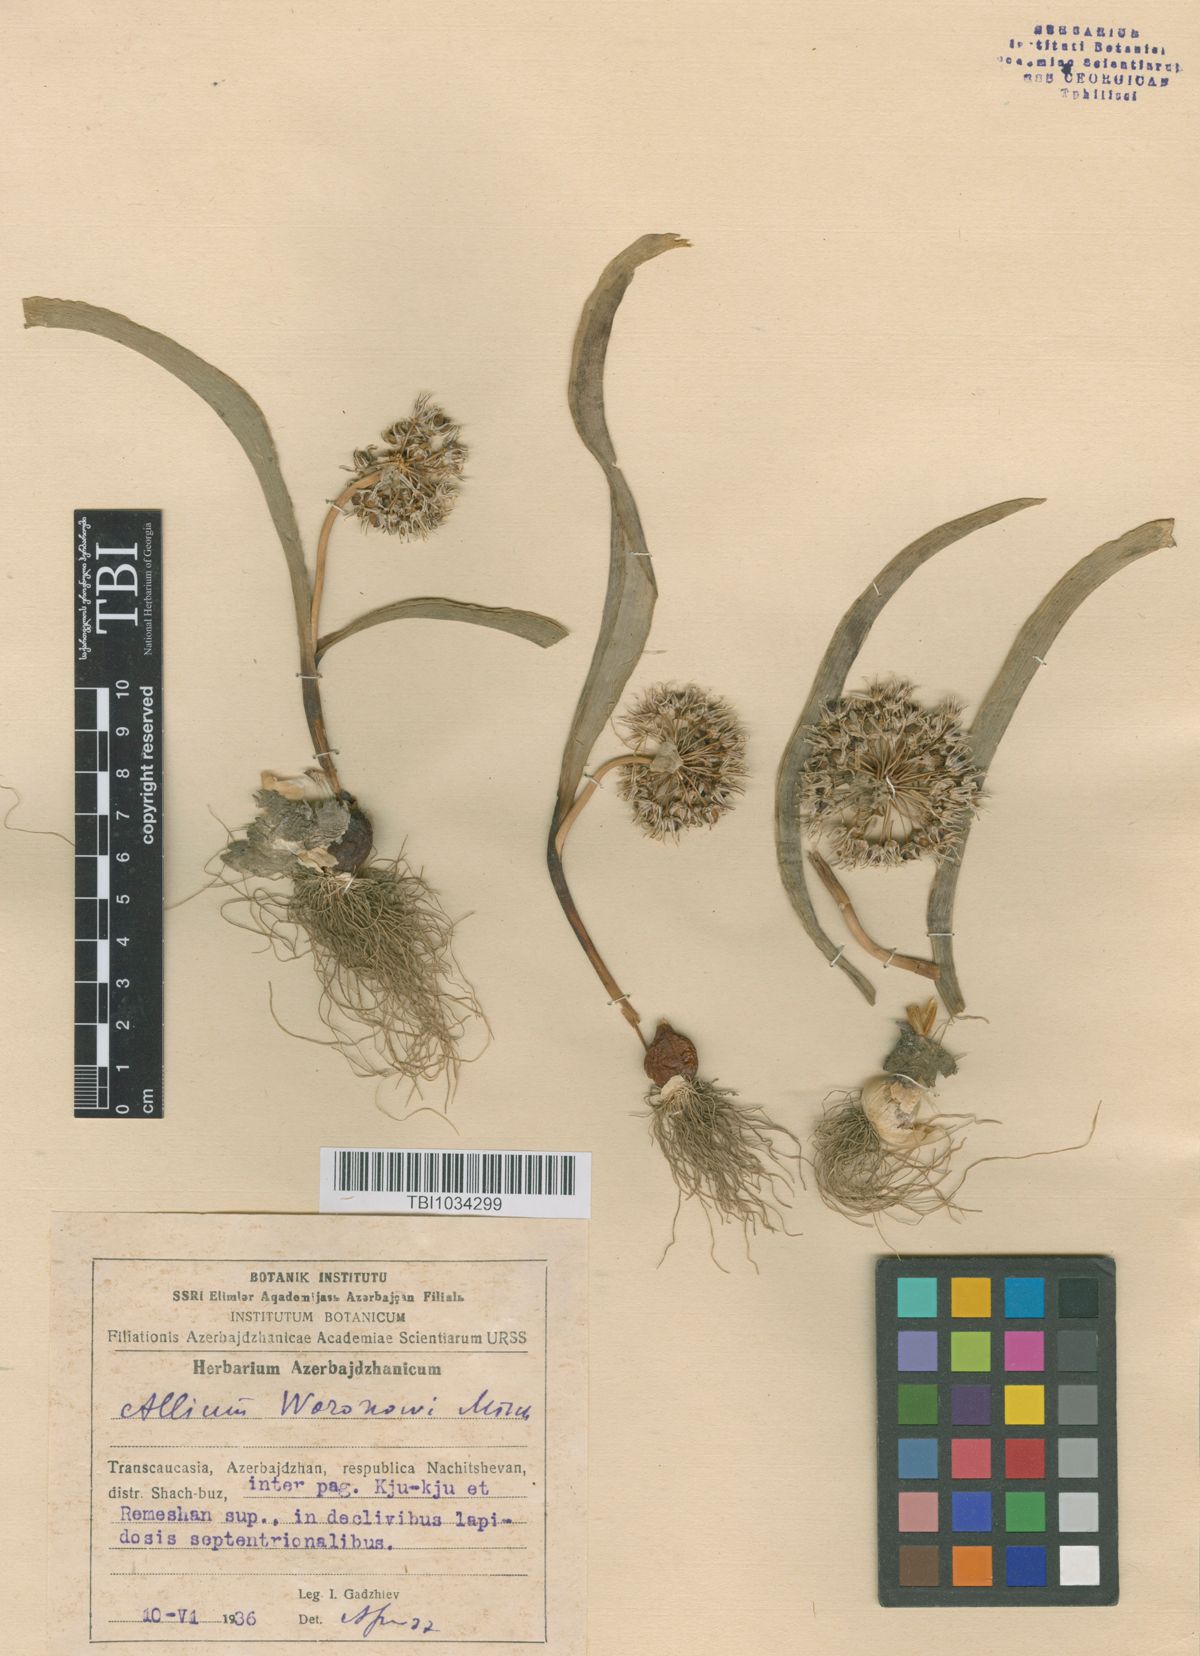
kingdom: Plantae
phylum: Tracheophyta
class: Liliopsida
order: Asparagales
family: Amaryllidaceae
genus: Allium
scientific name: Allium woronowii
